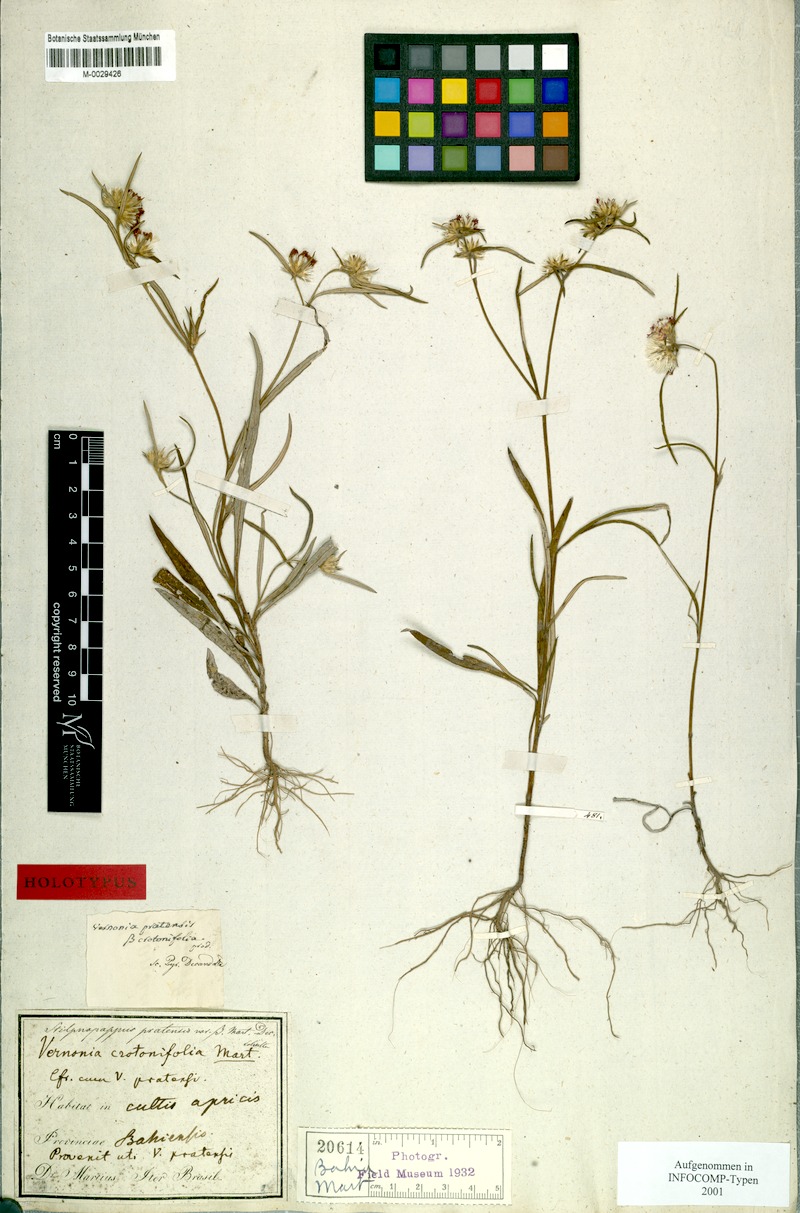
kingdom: Plantae
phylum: Tracheophyta
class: Magnoliopsida
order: Asterales
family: Asteraceae
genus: Stilpnopappus
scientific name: Stilpnopappus pratensis
